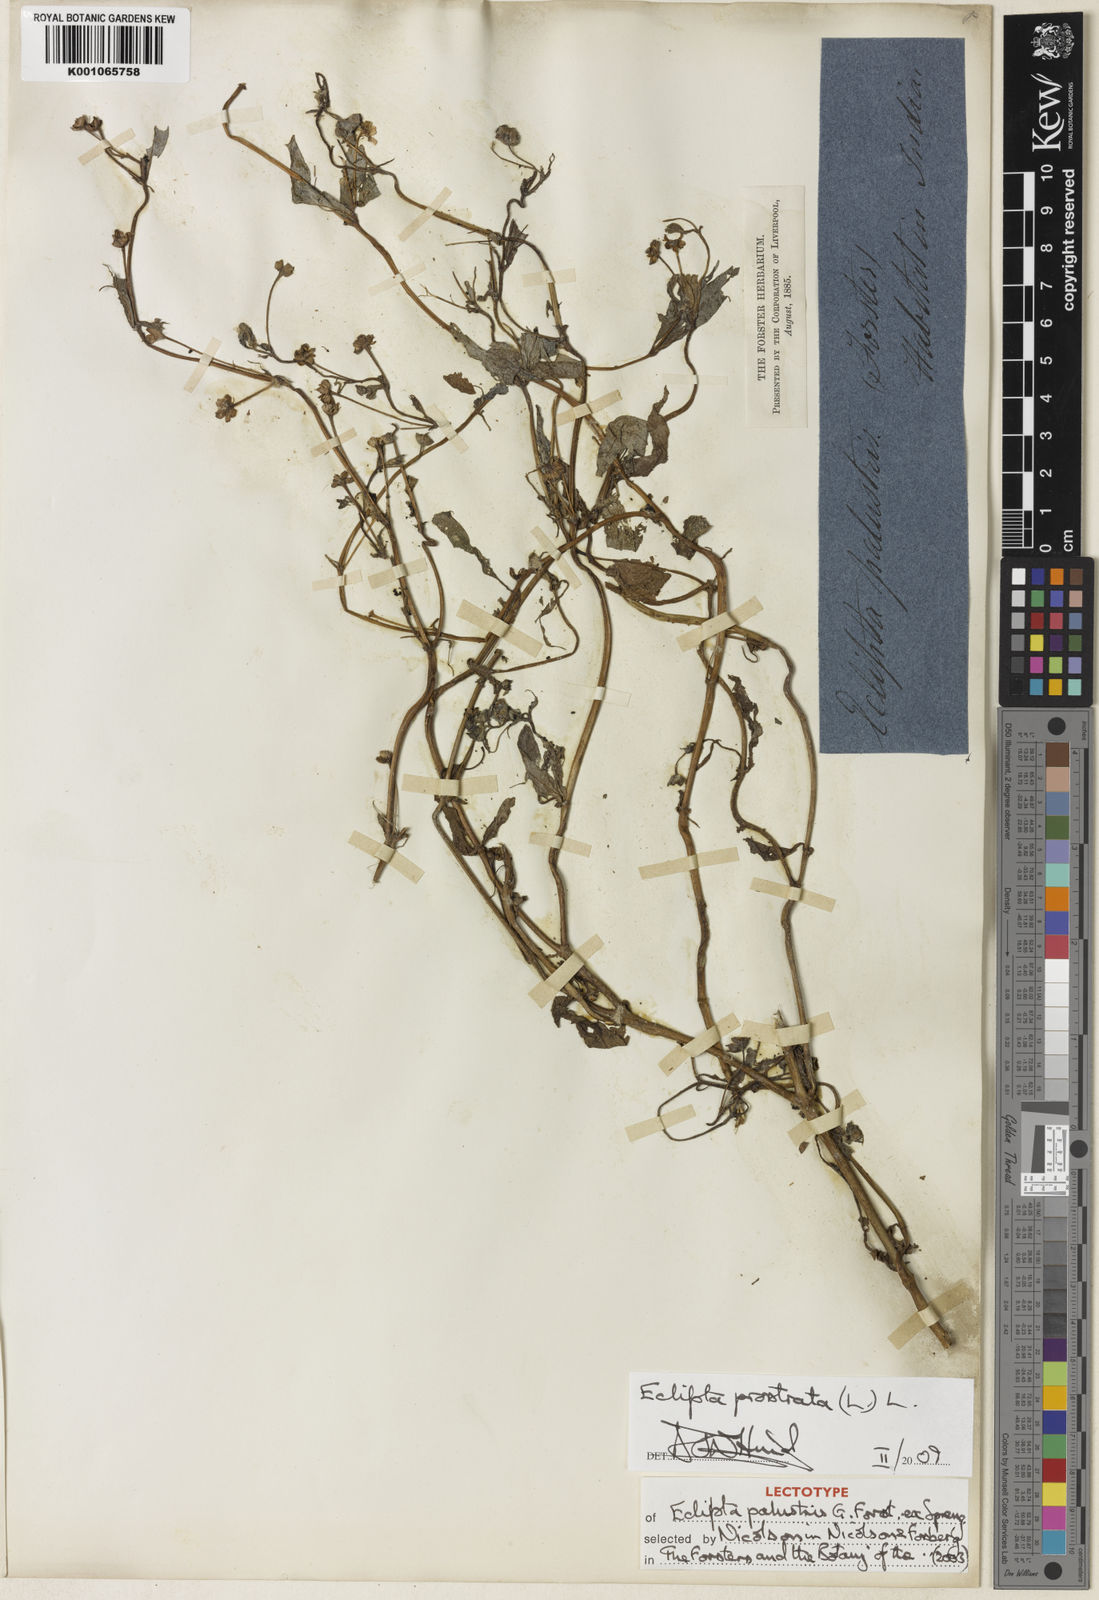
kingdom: Plantae
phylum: Tracheophyta
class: Magnoliopsida
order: Asterales
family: Asteraceae
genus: Eclipta
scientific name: Eclipta prostrata
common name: False daisy
